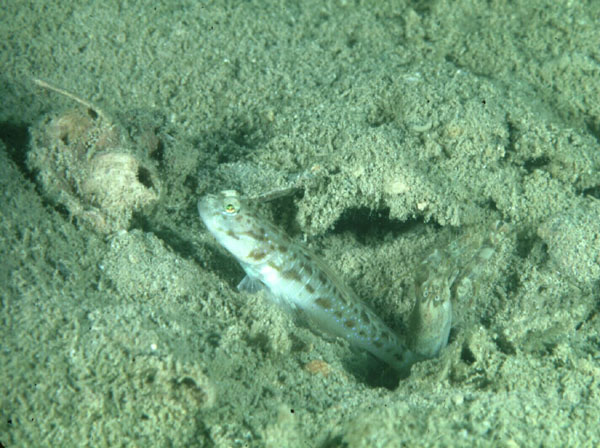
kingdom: Animalia
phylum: Chordata
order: Perciformes
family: Gobiidae
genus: Psilogobius
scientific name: Psilogobius mainlandi
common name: Hawaiian shrimp goby
